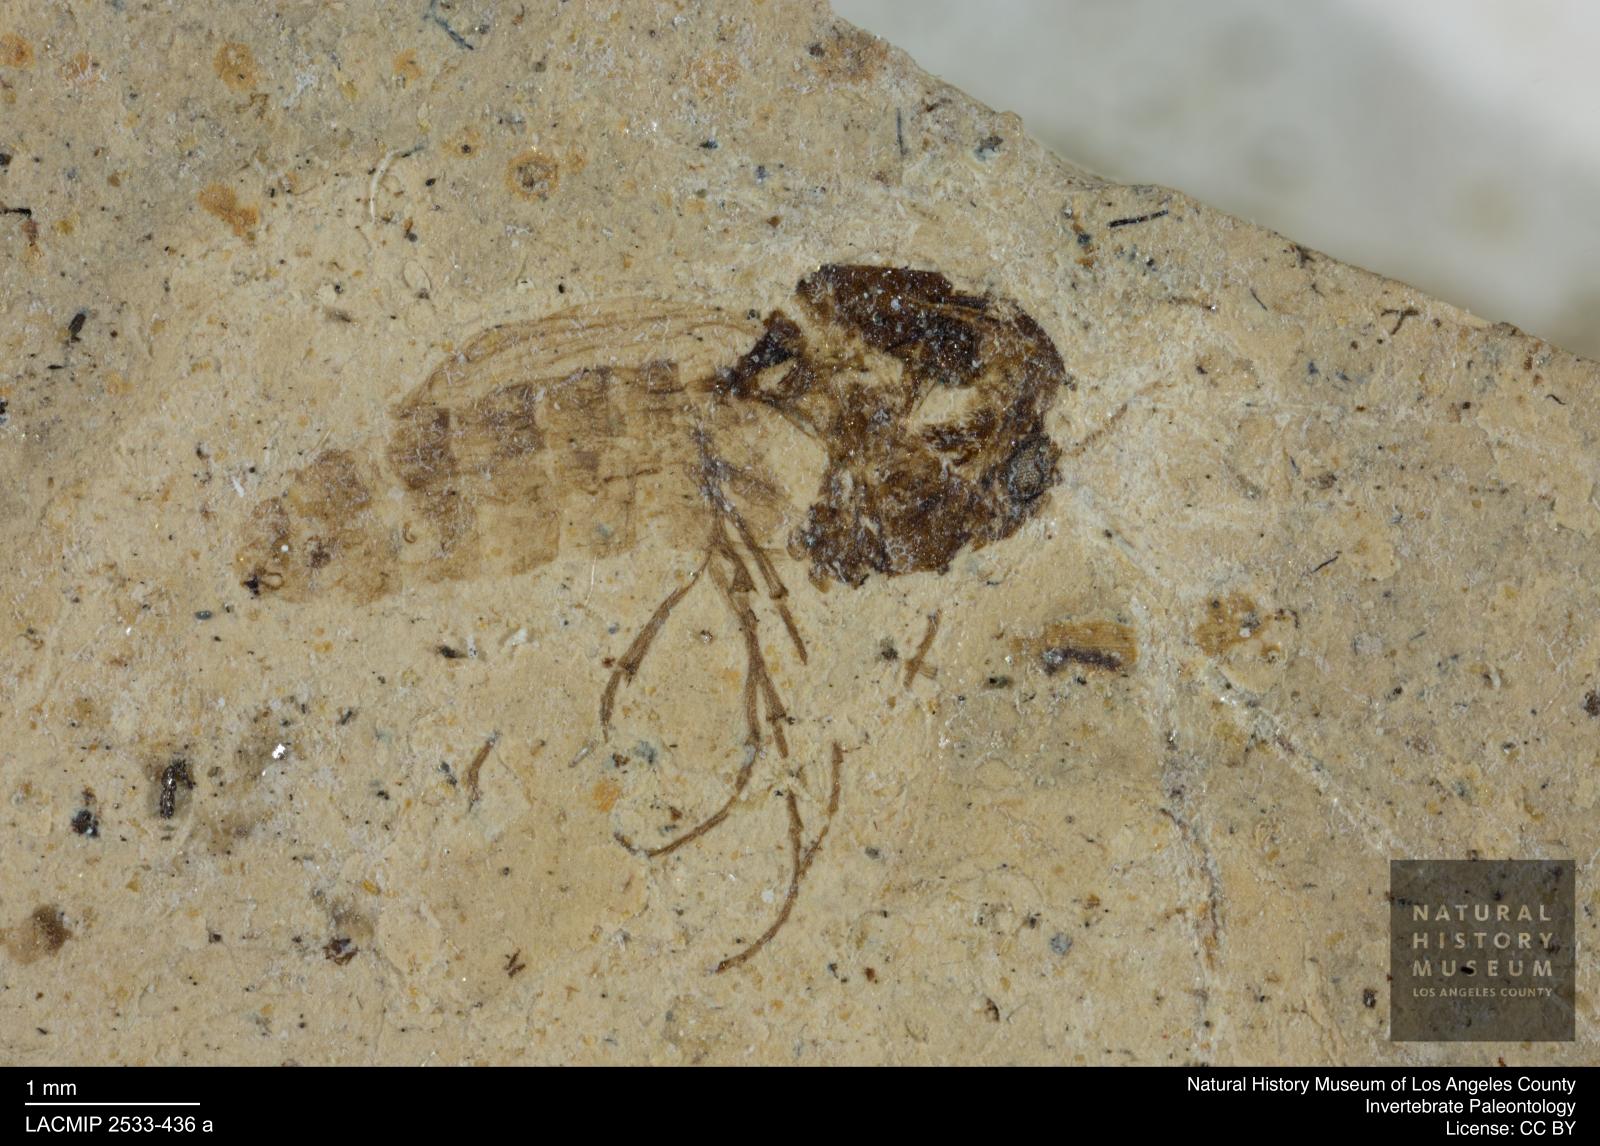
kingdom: Animalia
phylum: Arthropoda
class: Insecta
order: Diptera
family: Chironomidae
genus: Tanypus
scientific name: Tanypus thienemanni
